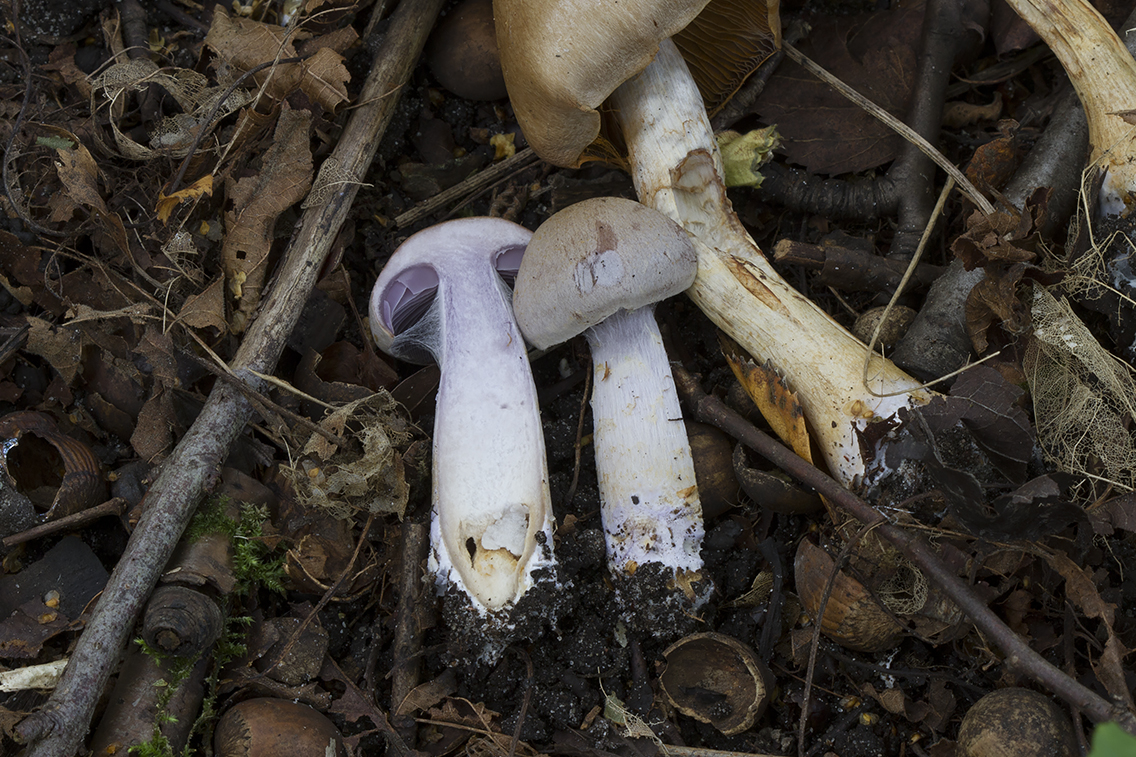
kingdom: Fungi
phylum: Basidiomycota
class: Agaricomycetes
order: Agaricales
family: Cortinariaceae
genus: Cortinarius
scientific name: Cortinarius
